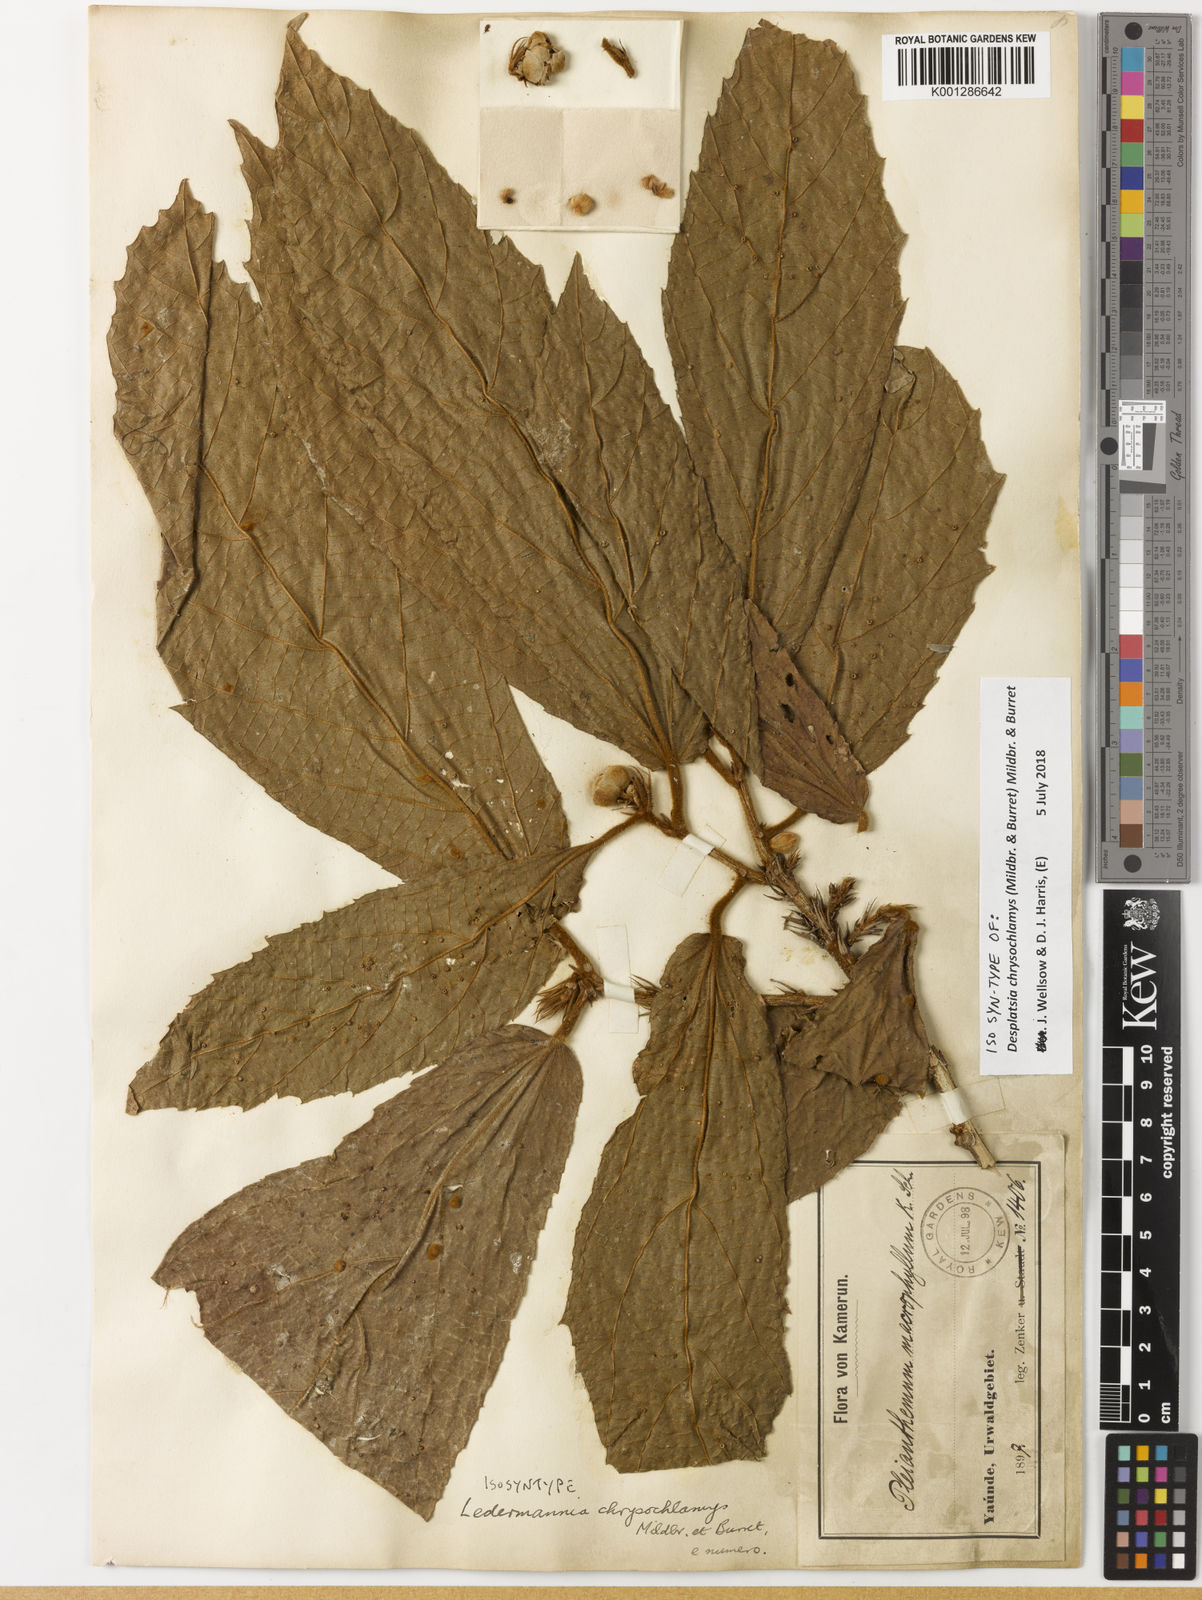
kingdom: Plantae
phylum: Tracheophyta
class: Magnoliopsida
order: Malvales
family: Malvaceae
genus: Duboscia
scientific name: Duboscia
